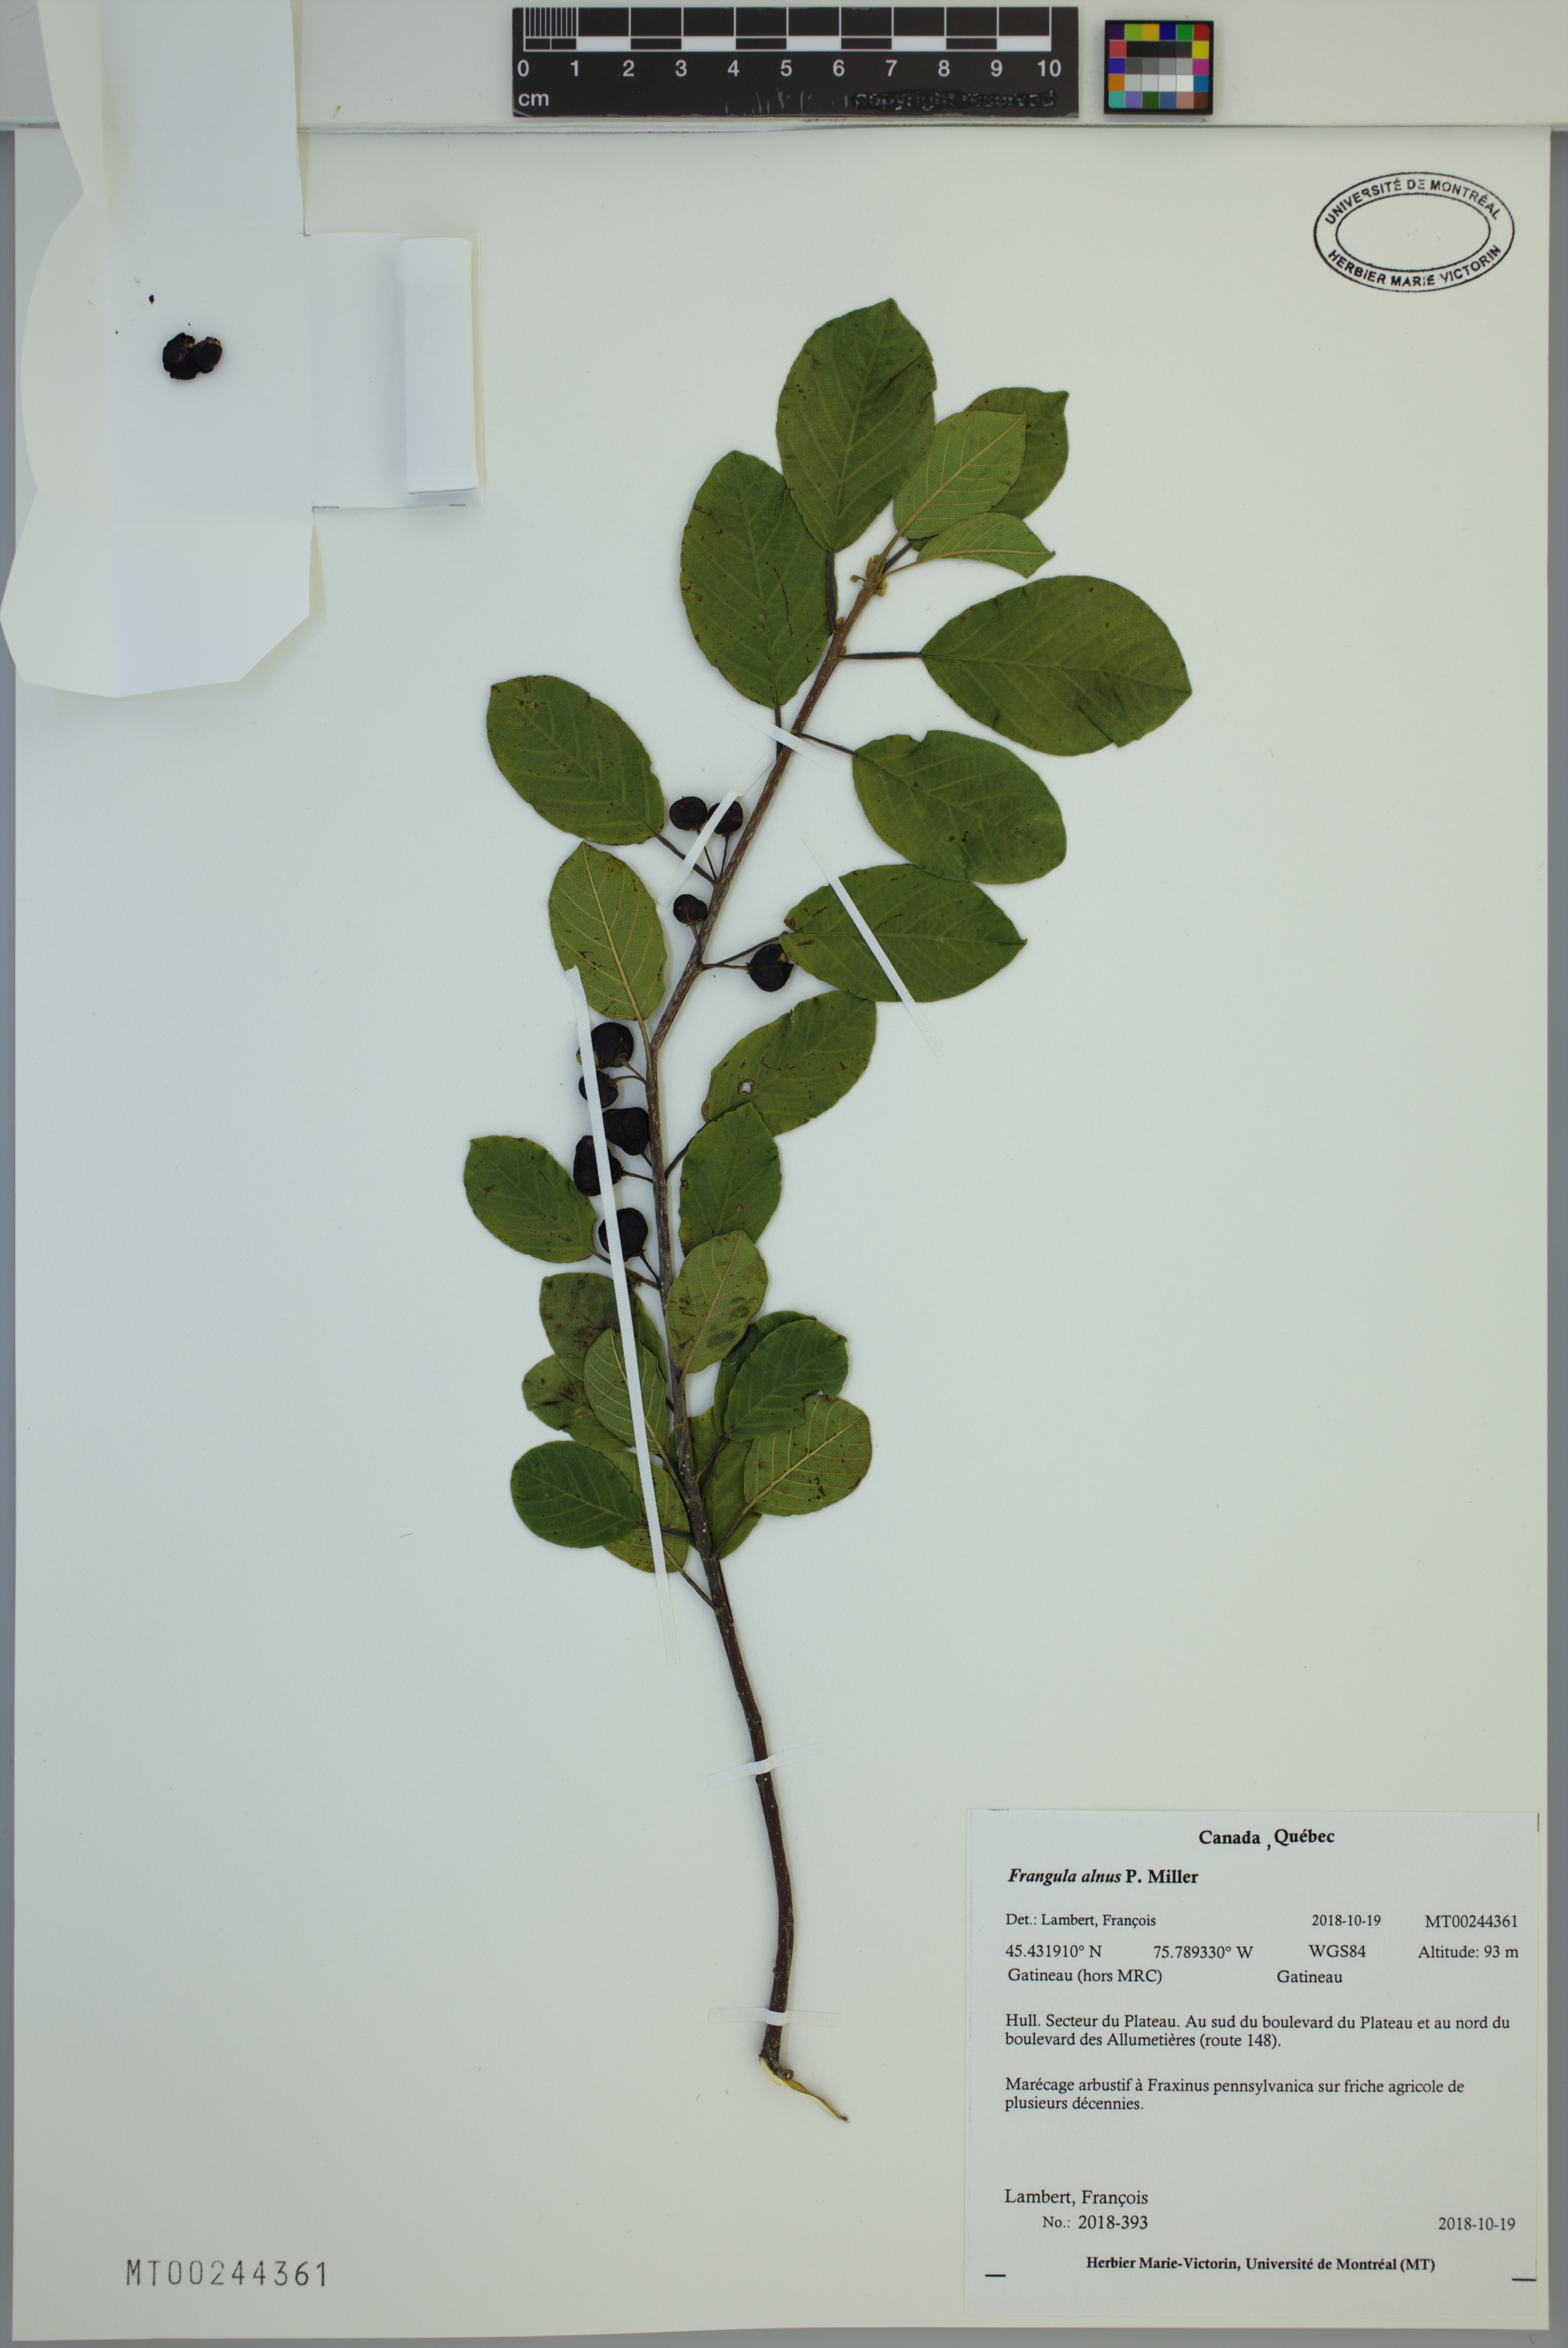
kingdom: Plantae
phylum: Tracheophyta
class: Magnoliopsida
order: Rosales
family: Rhamnaceae
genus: Frangula
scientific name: Frangula alnus
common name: Alder buckthorn
